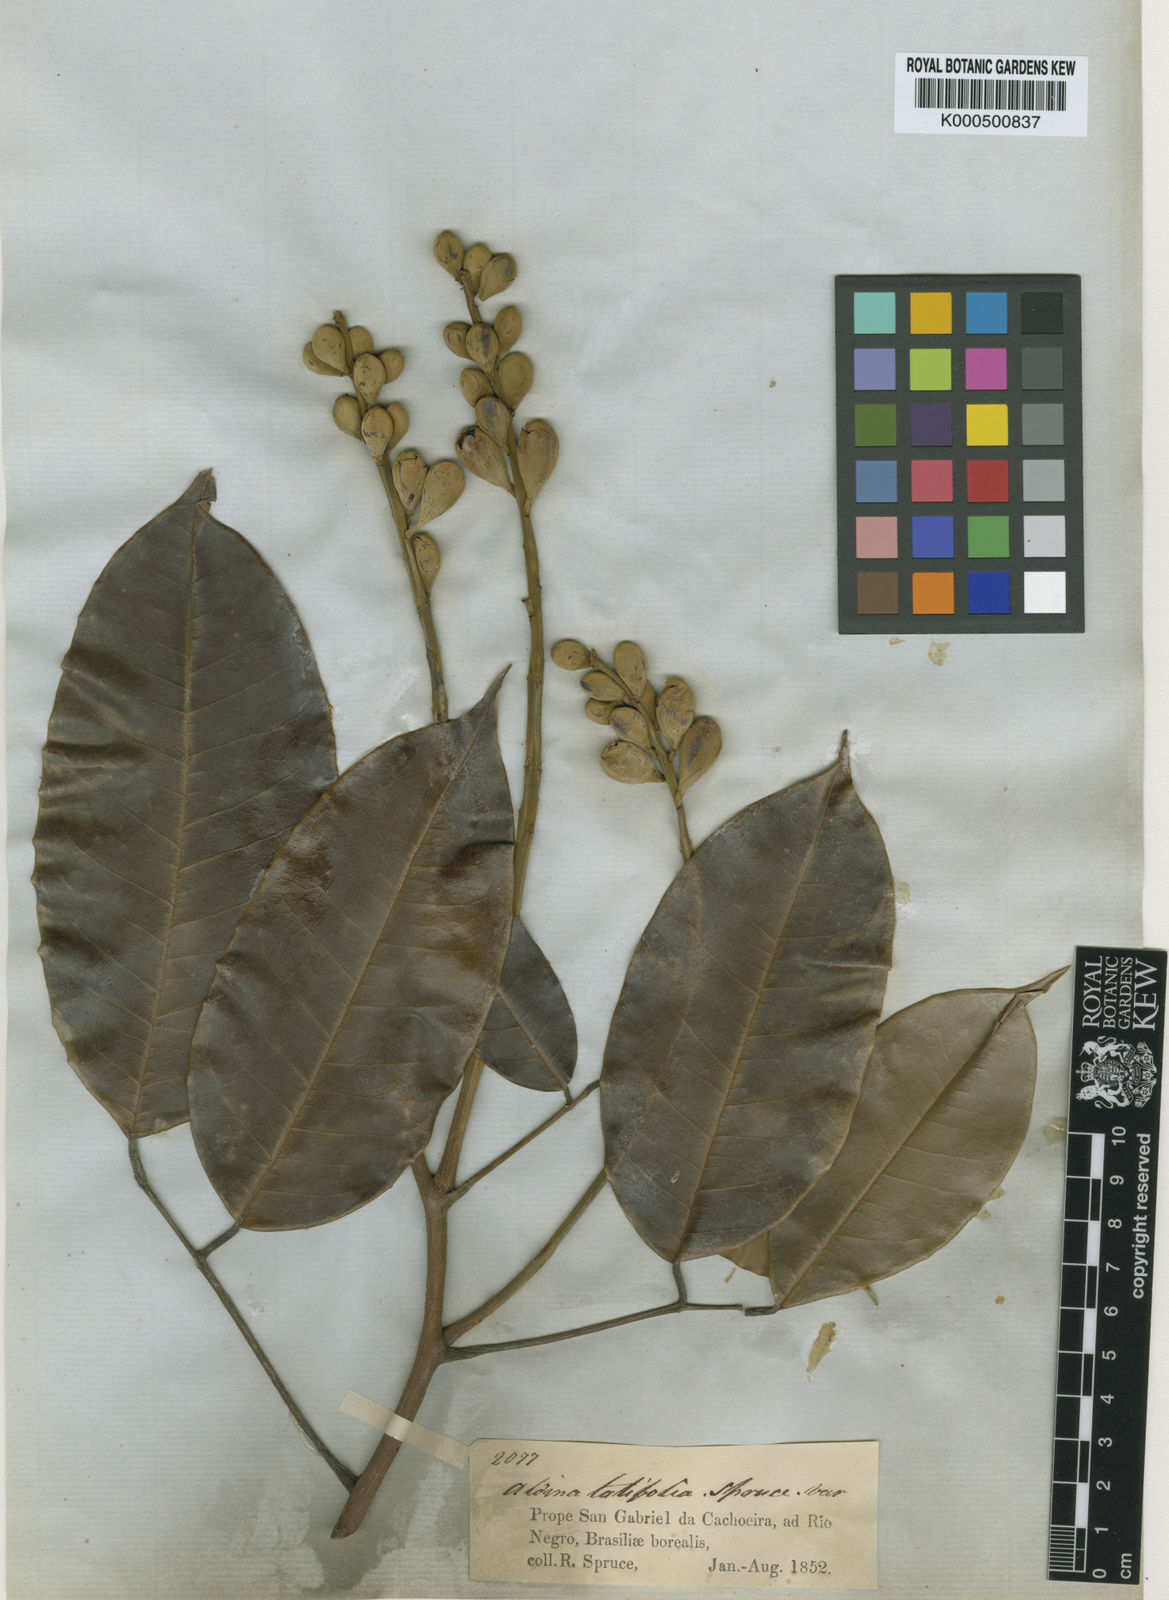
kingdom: Plantae
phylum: Tracheophyta
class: Magnoliopsida
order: Fabales
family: Fabaceae
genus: Aldina
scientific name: Aldina latifolia
